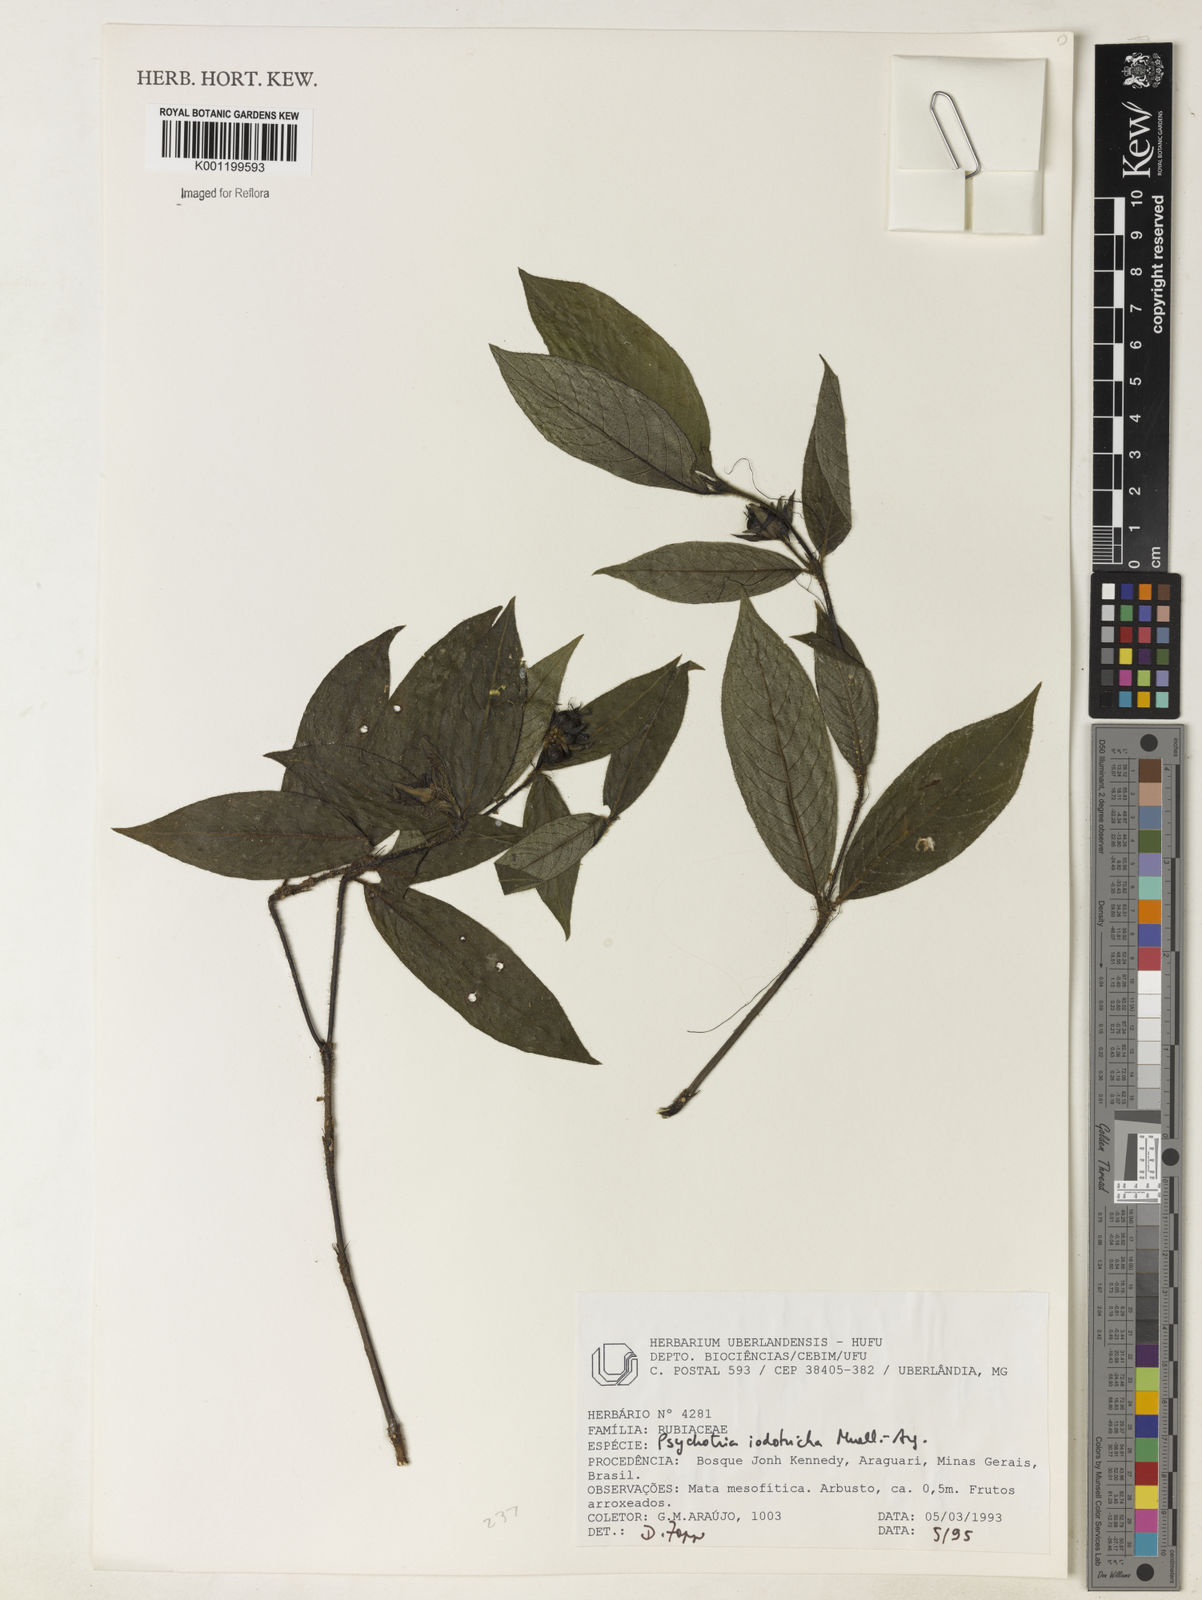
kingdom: Plantae
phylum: Tracheophyta
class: Magnoliopsida
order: Gentianales
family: Rubiaceae
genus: Psychotria
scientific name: Psychotria
